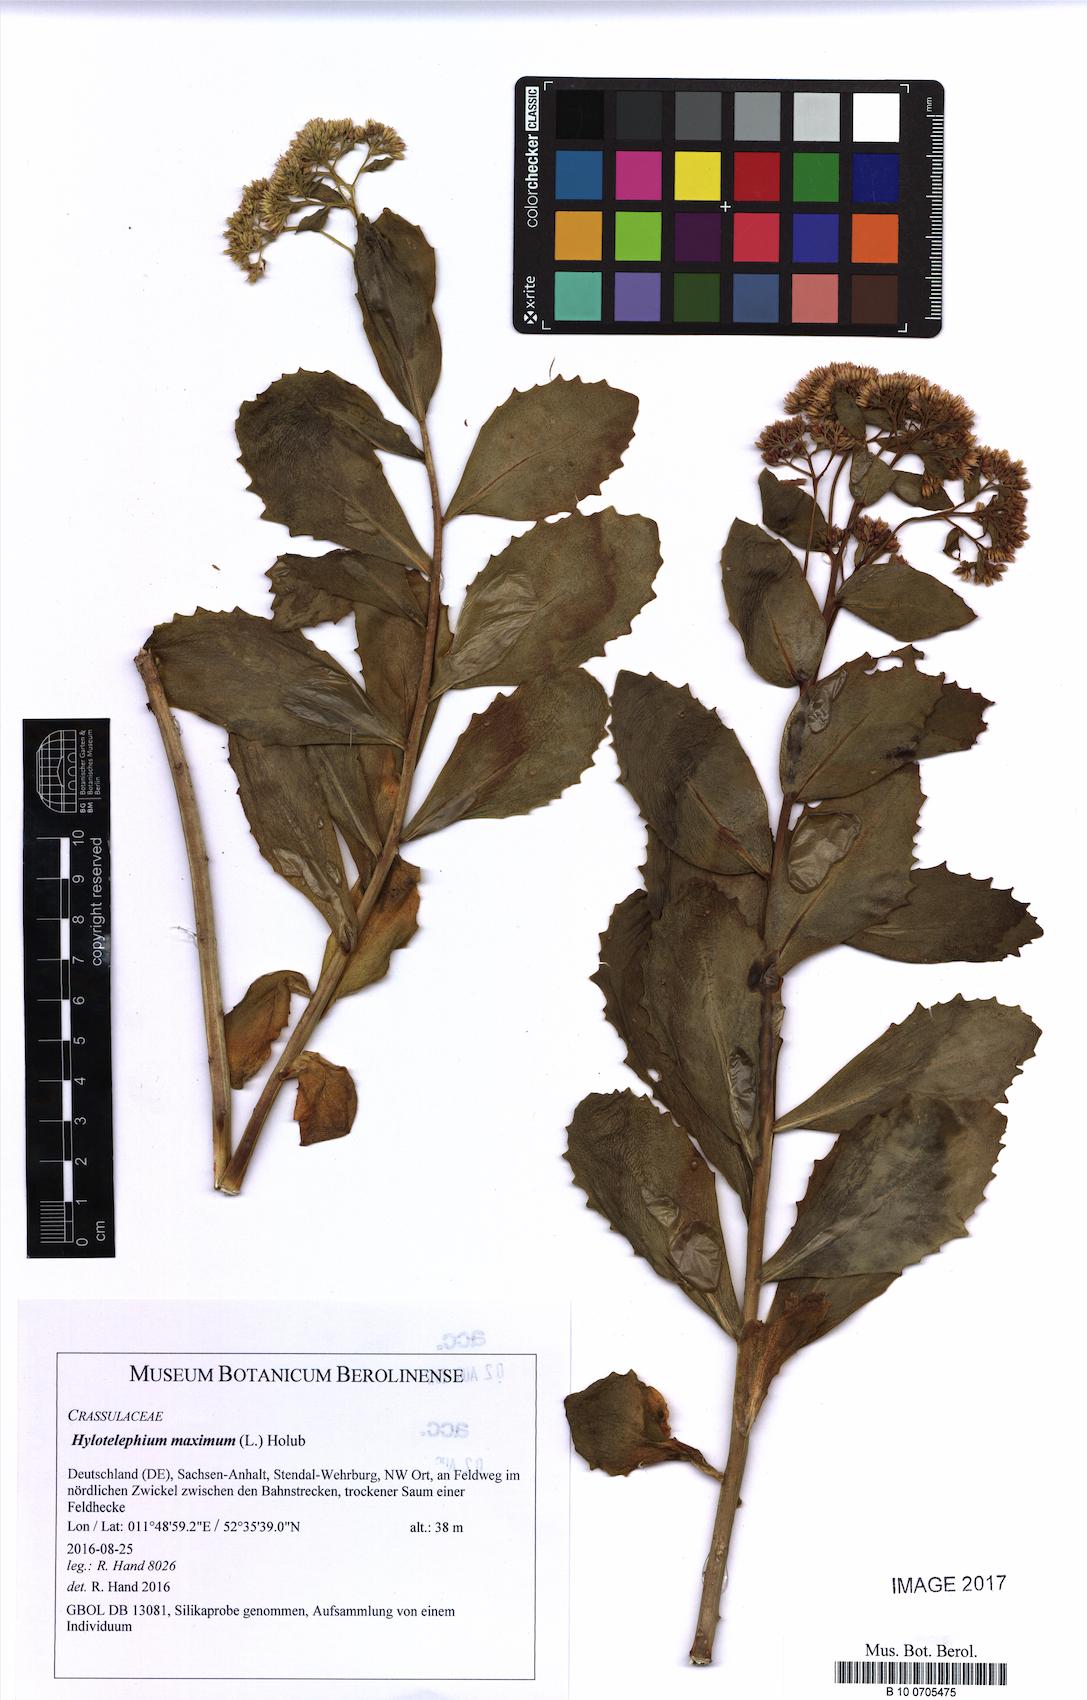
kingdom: Plantae
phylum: Tracheophyta
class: Magnoliopsida
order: Saxifragales
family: Crassulaceae
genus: Hylotelephium
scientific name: Hylotelephium maximum
